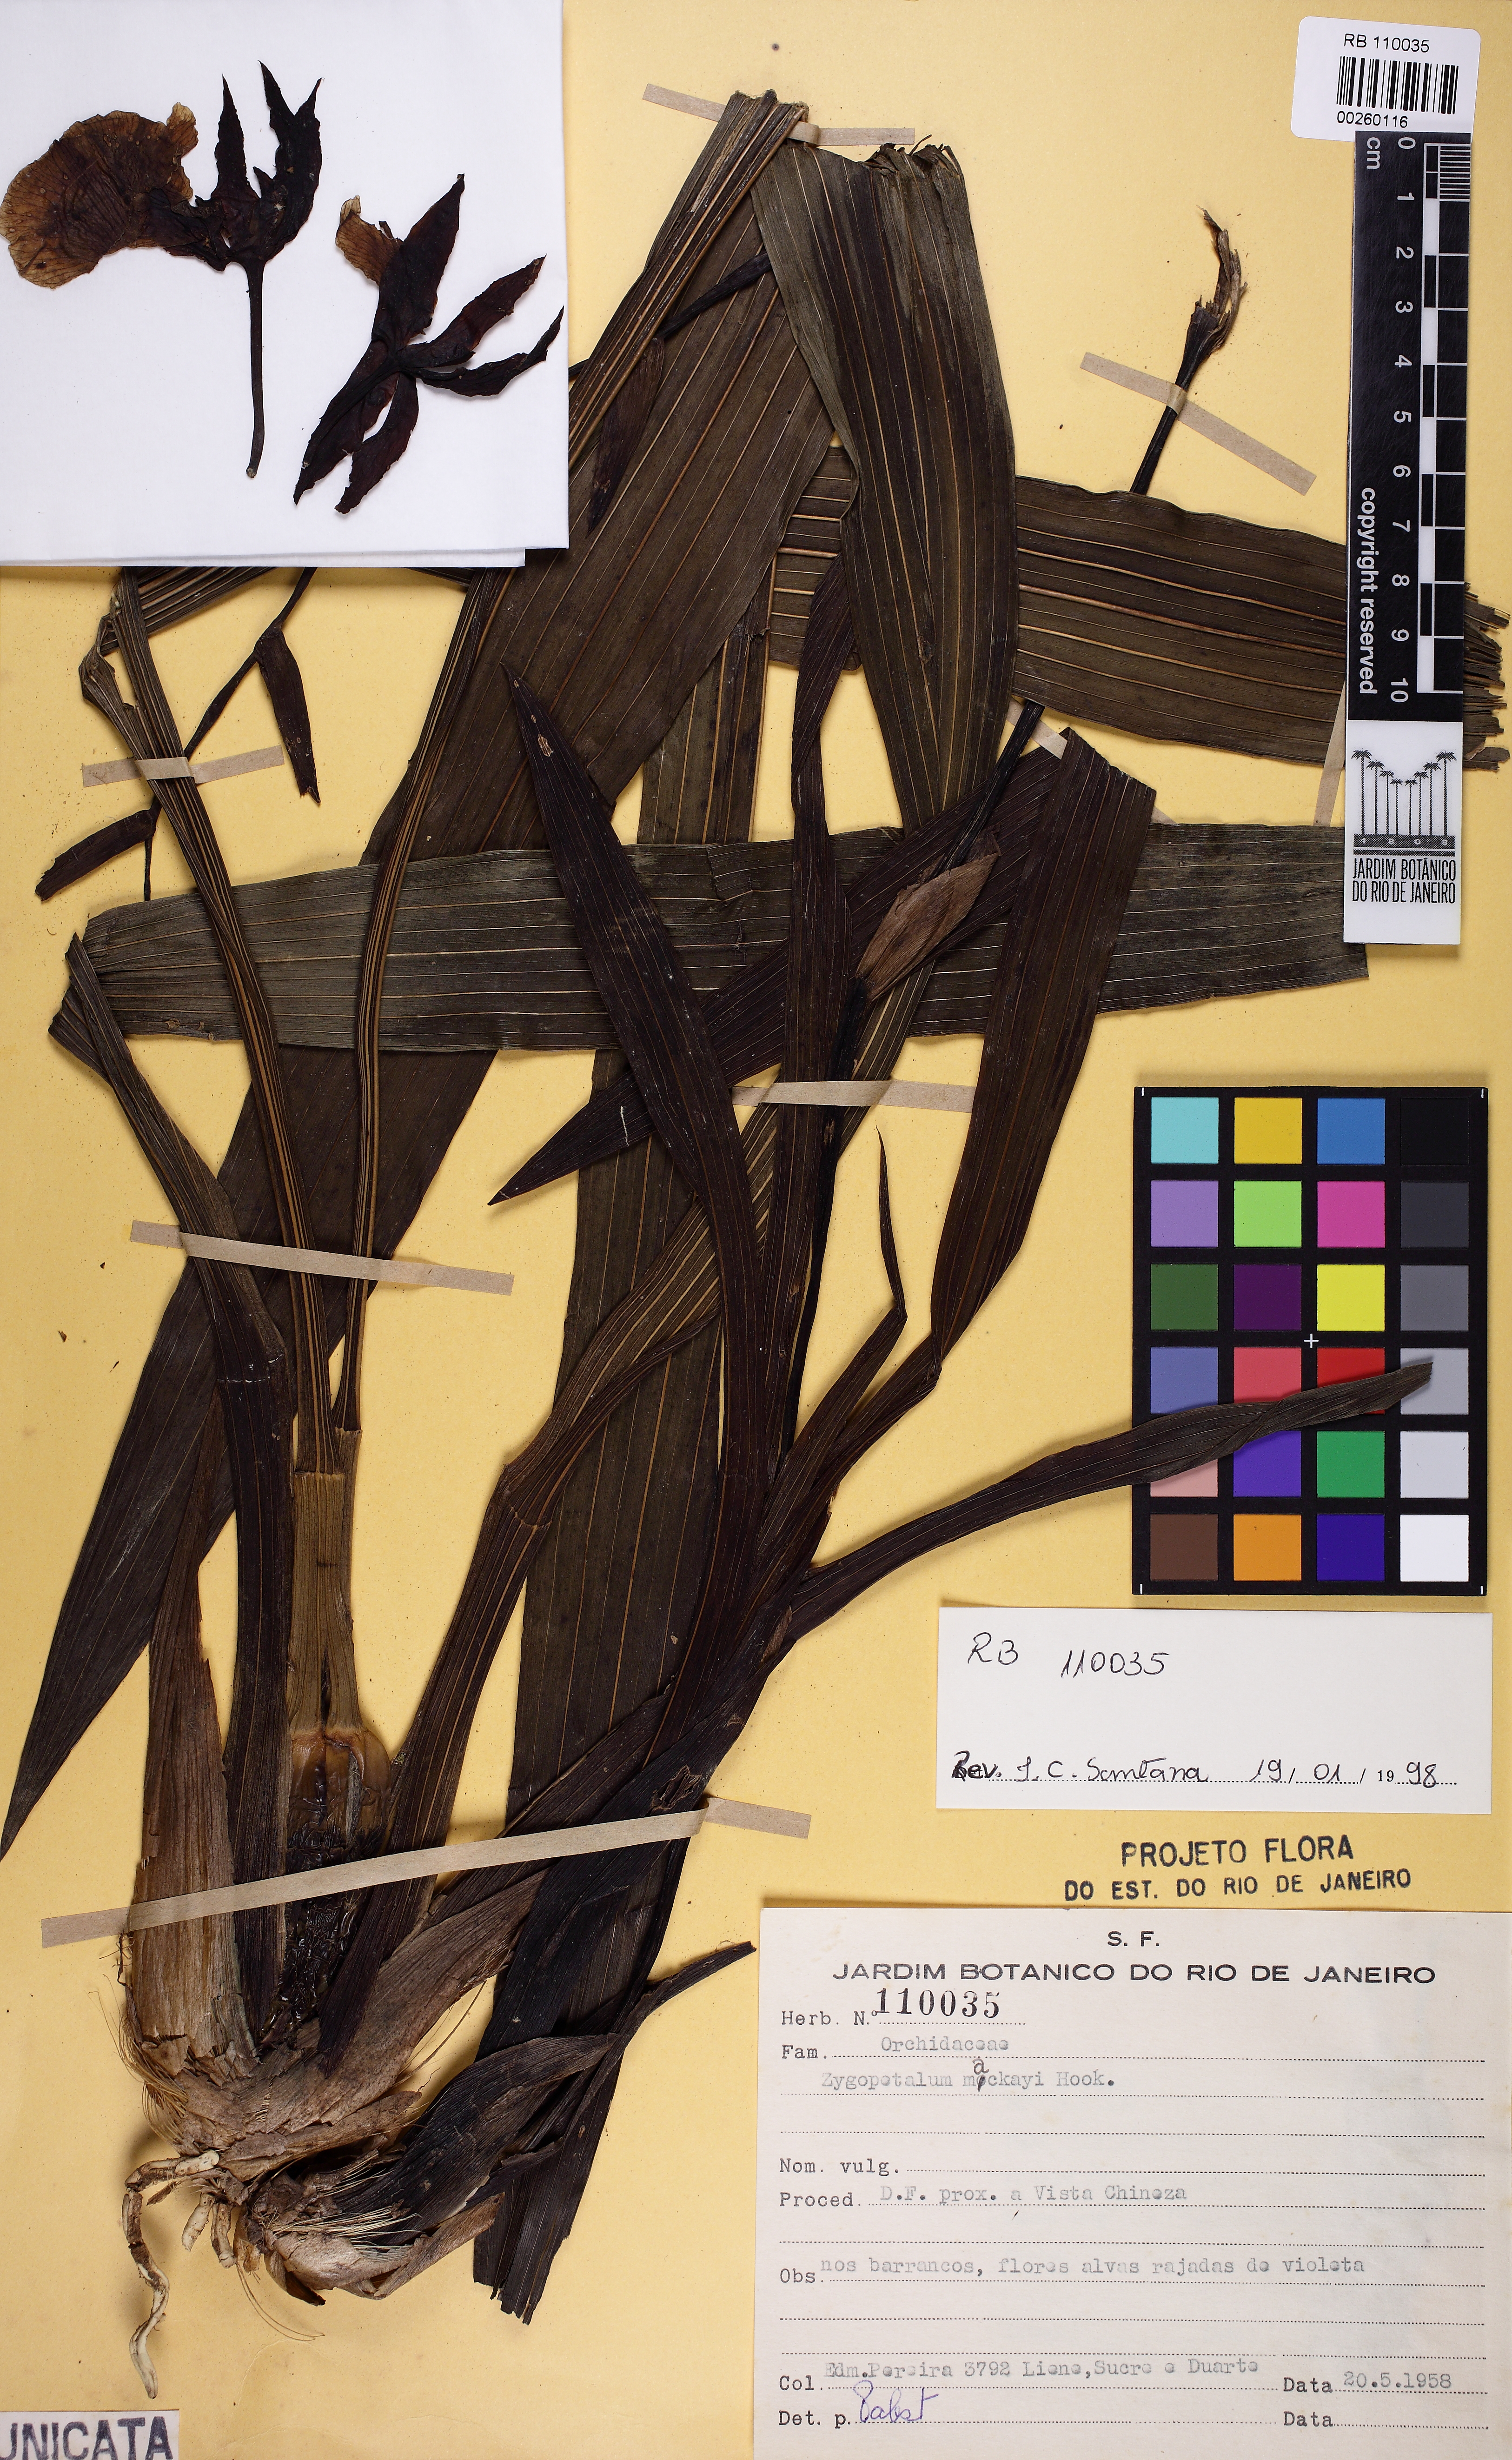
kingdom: Plantae
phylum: Tracheophyta
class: Liliopsida
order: Asparagales
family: Orchidaceae
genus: Zygopetalum
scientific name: Zygopetalum maculatum
